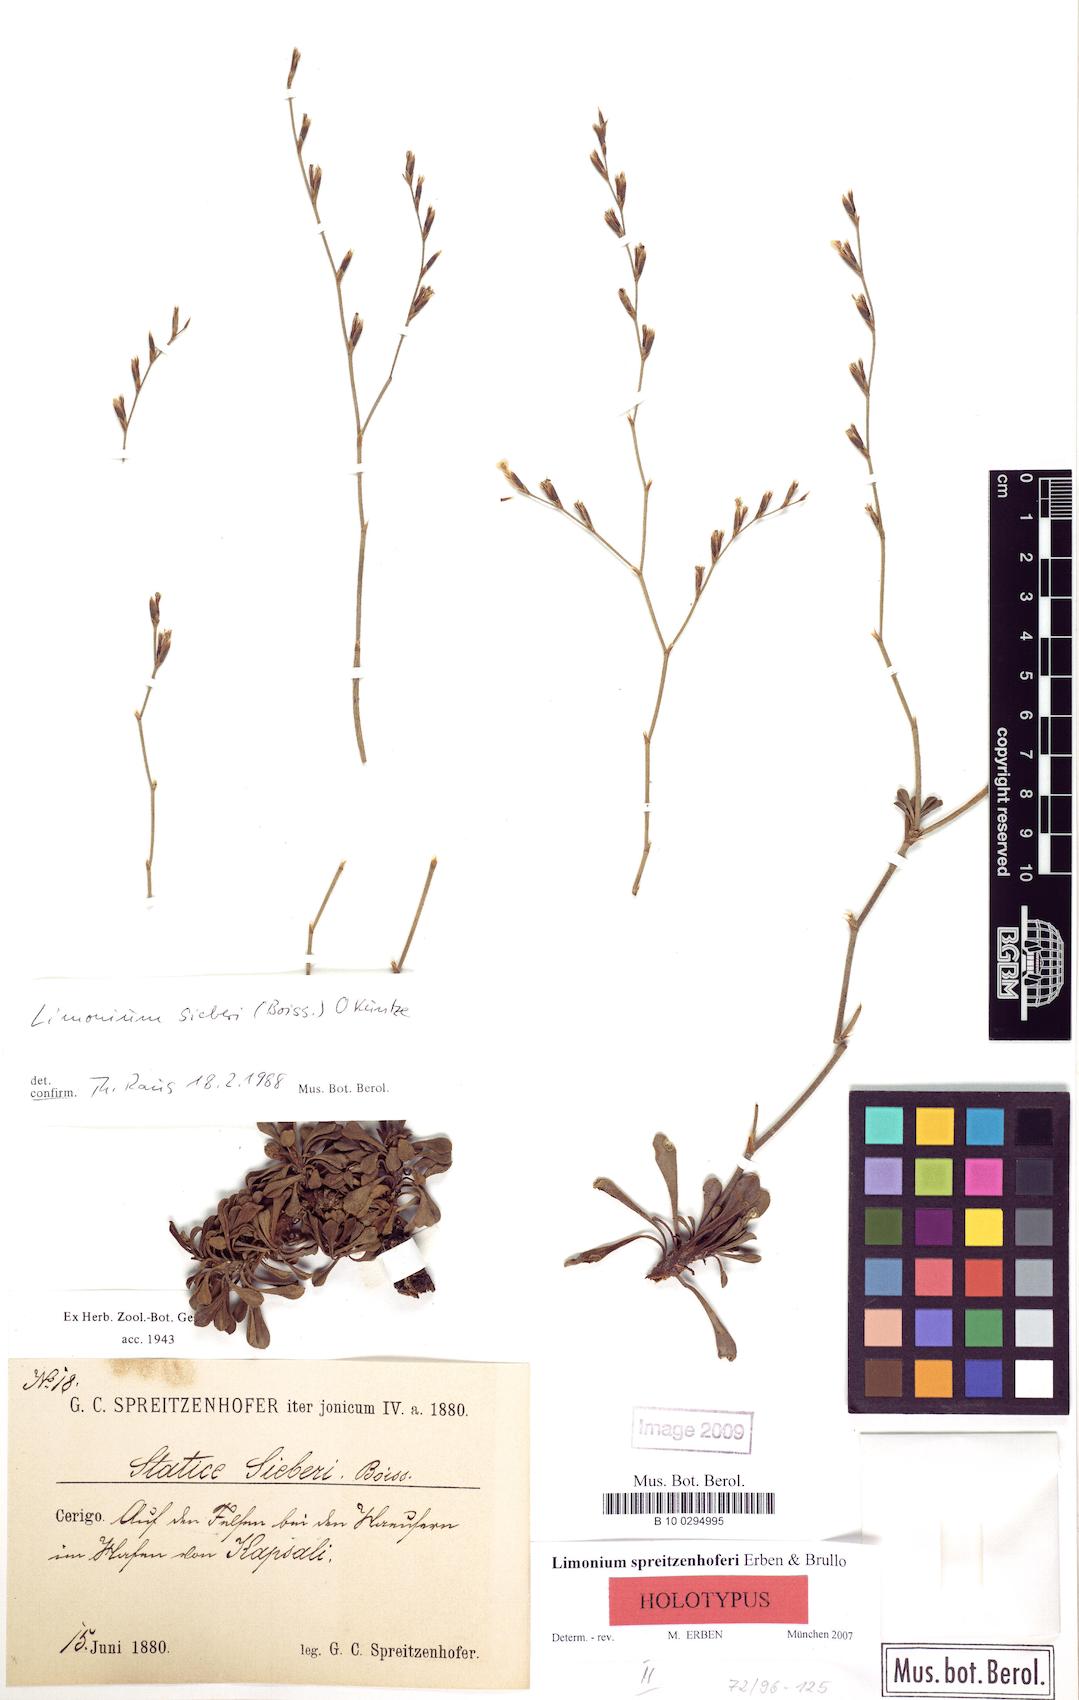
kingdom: Plantae
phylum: Tracheophyta
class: Magnoliopsida
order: Caryophyllales
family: Plumbaginaceae
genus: Limonium
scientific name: Limonium spreitzenhoferi
